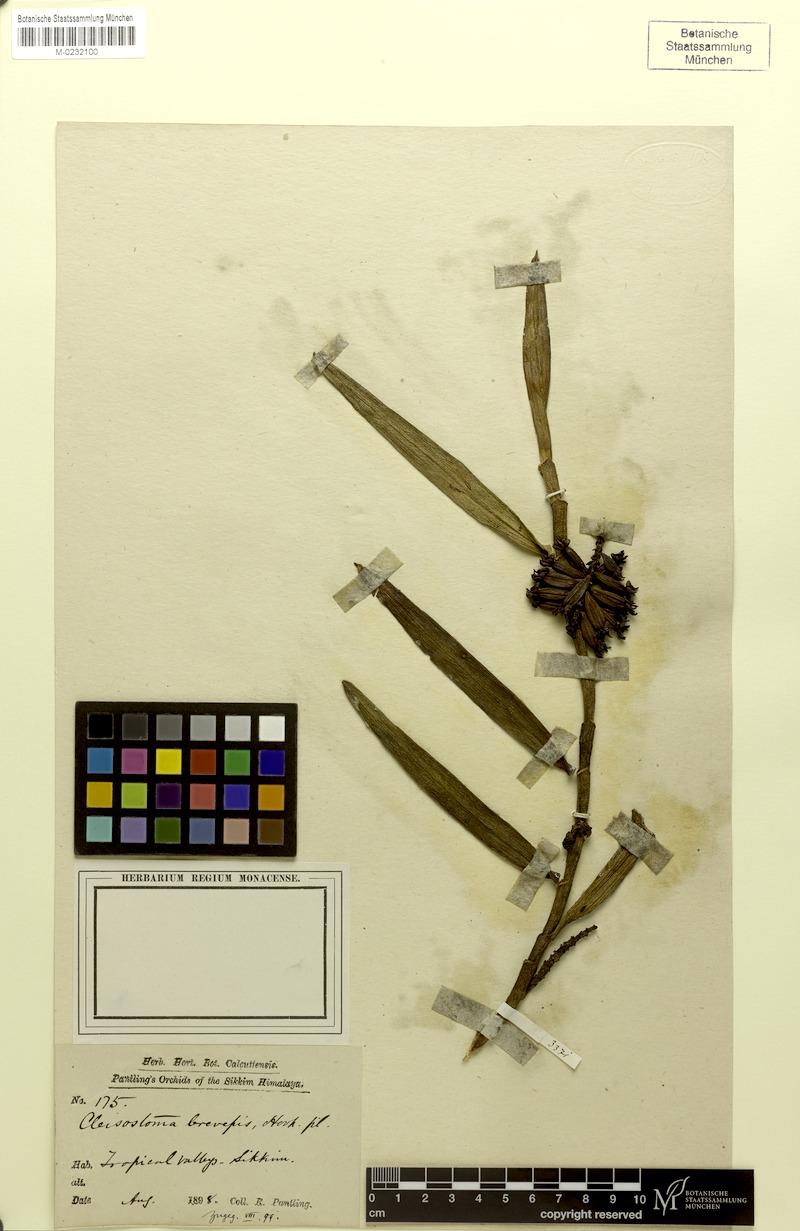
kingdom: Plantae
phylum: Tracheophyta
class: Liliopsida
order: Asparagales
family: Orchidaceae
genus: Cleisostoma
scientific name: Cleisostoma striatum
